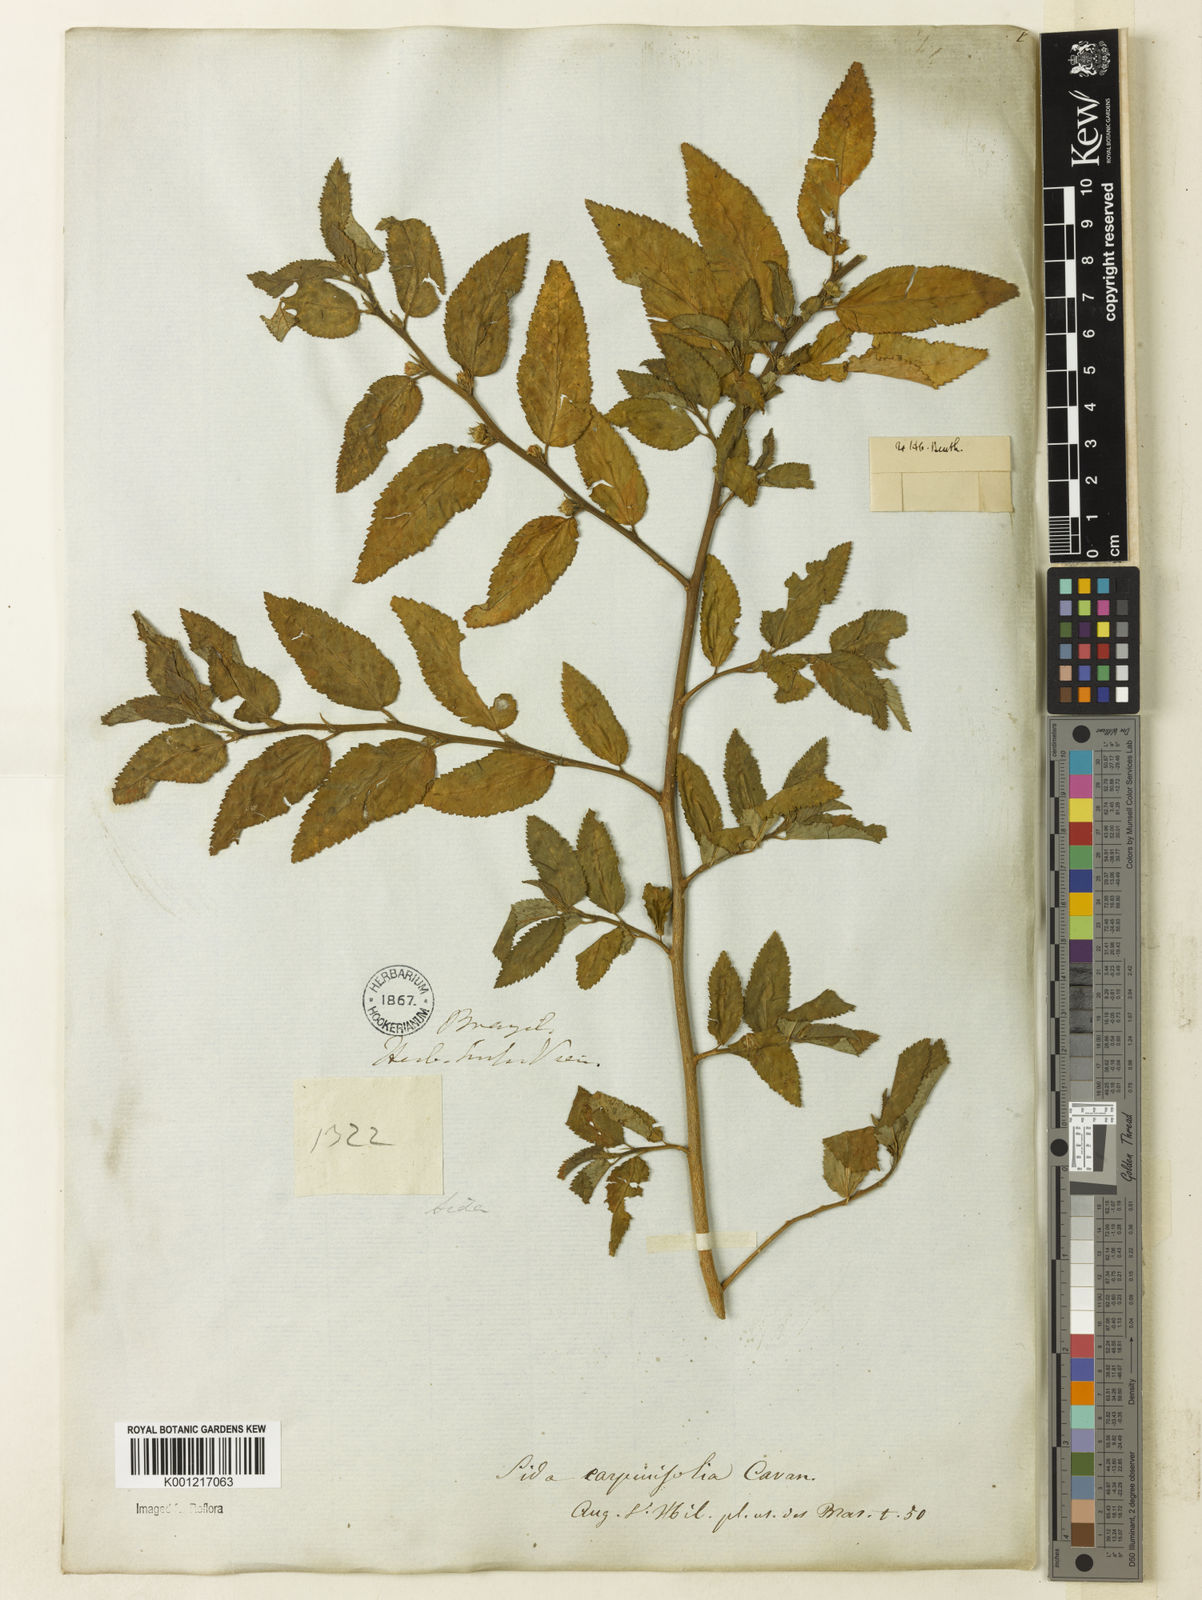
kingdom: Plantae
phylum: Tracheophyta
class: Magnoliopsida
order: Malvales
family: Malvaceae
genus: Sida
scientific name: Sida planicaulis
